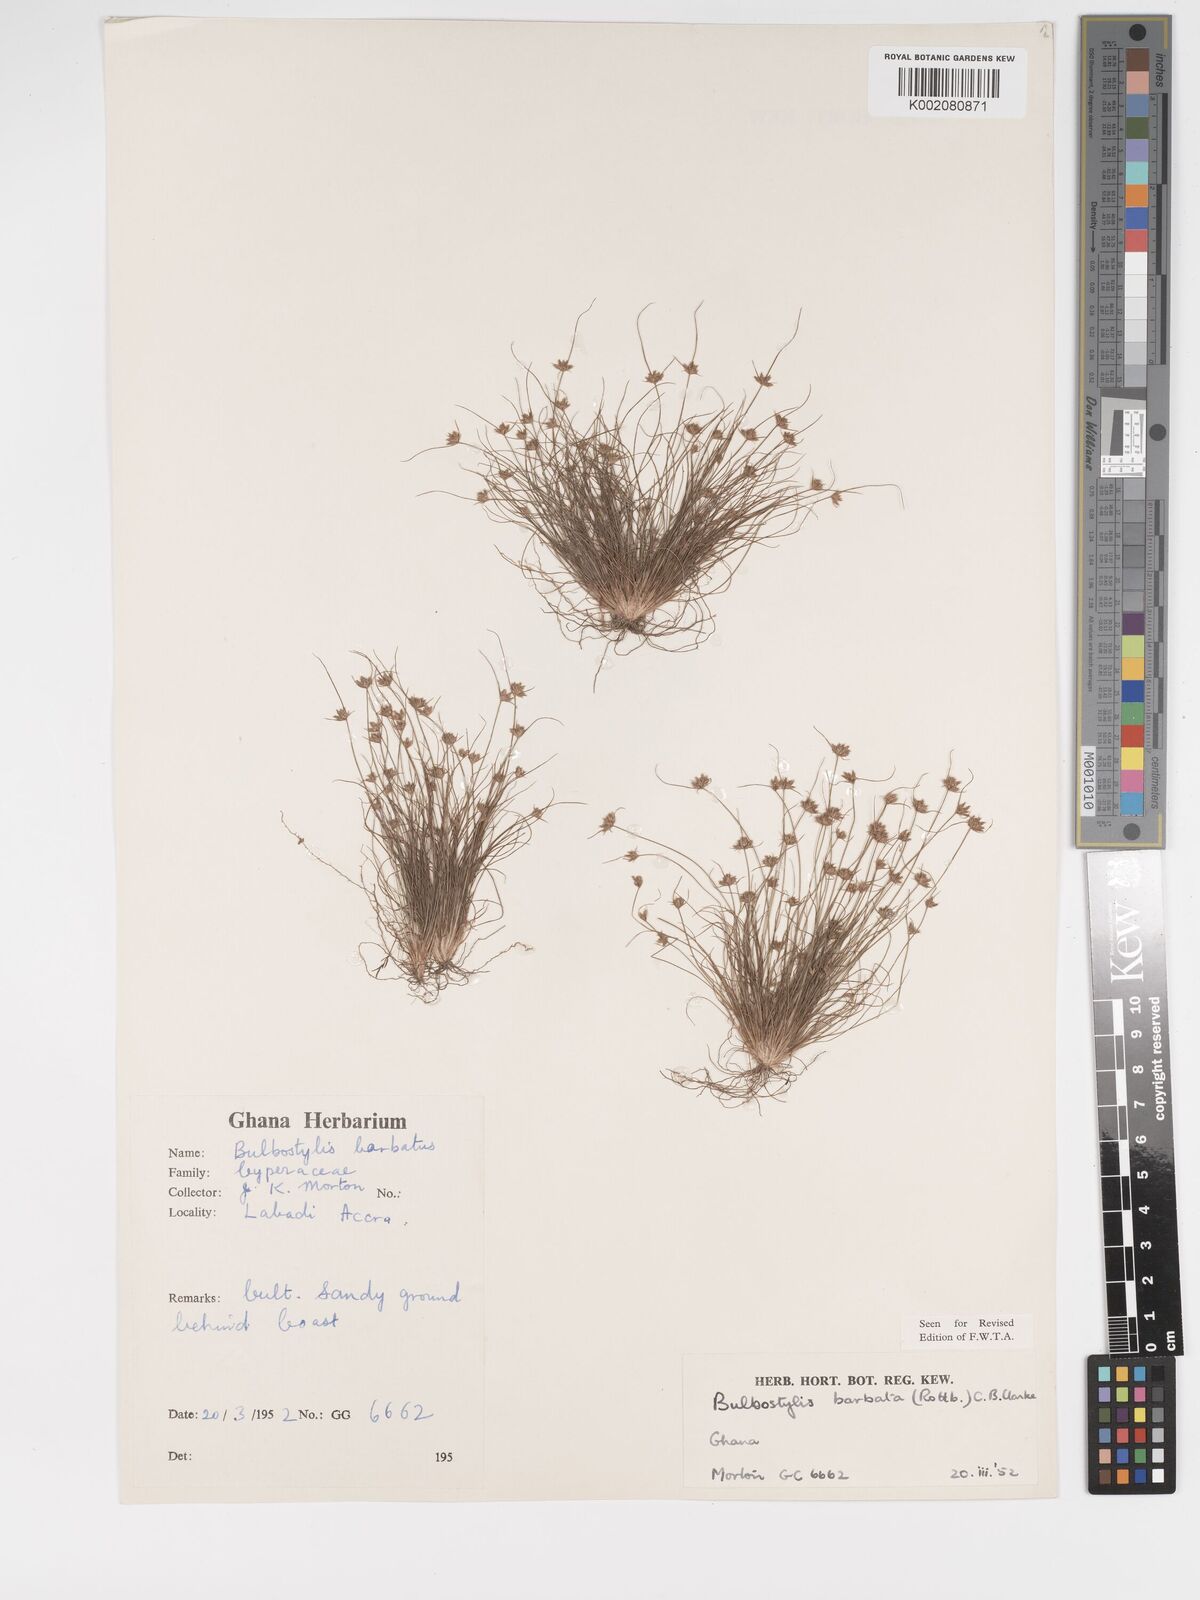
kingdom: Plantae
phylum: Tracheophyta
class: Liliopsida
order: Poales
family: Cyperaceae
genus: Bulbostylis
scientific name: Bulbostylis barbata
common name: Watergrass
